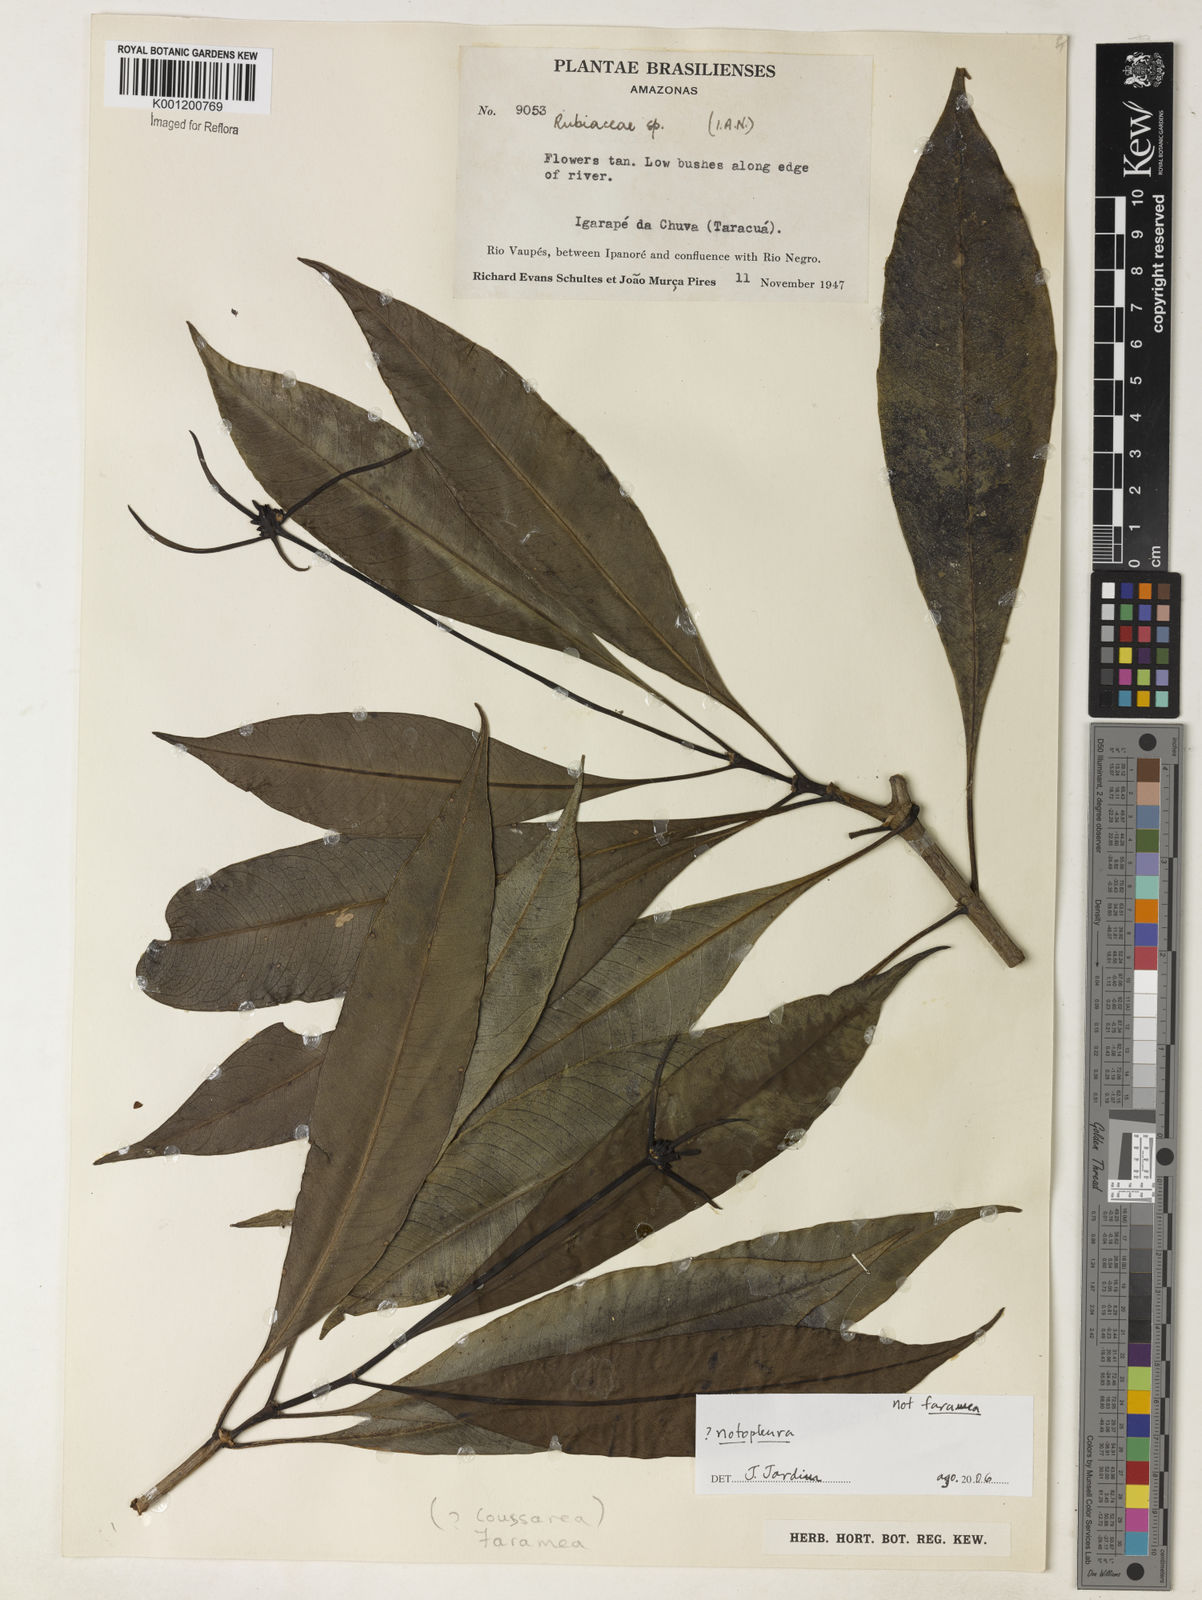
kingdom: Plantae
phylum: Tracheophyta
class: Magnoliopsida
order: Gentianales
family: Rubiaceae
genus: Notopleura
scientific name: Notopleura
